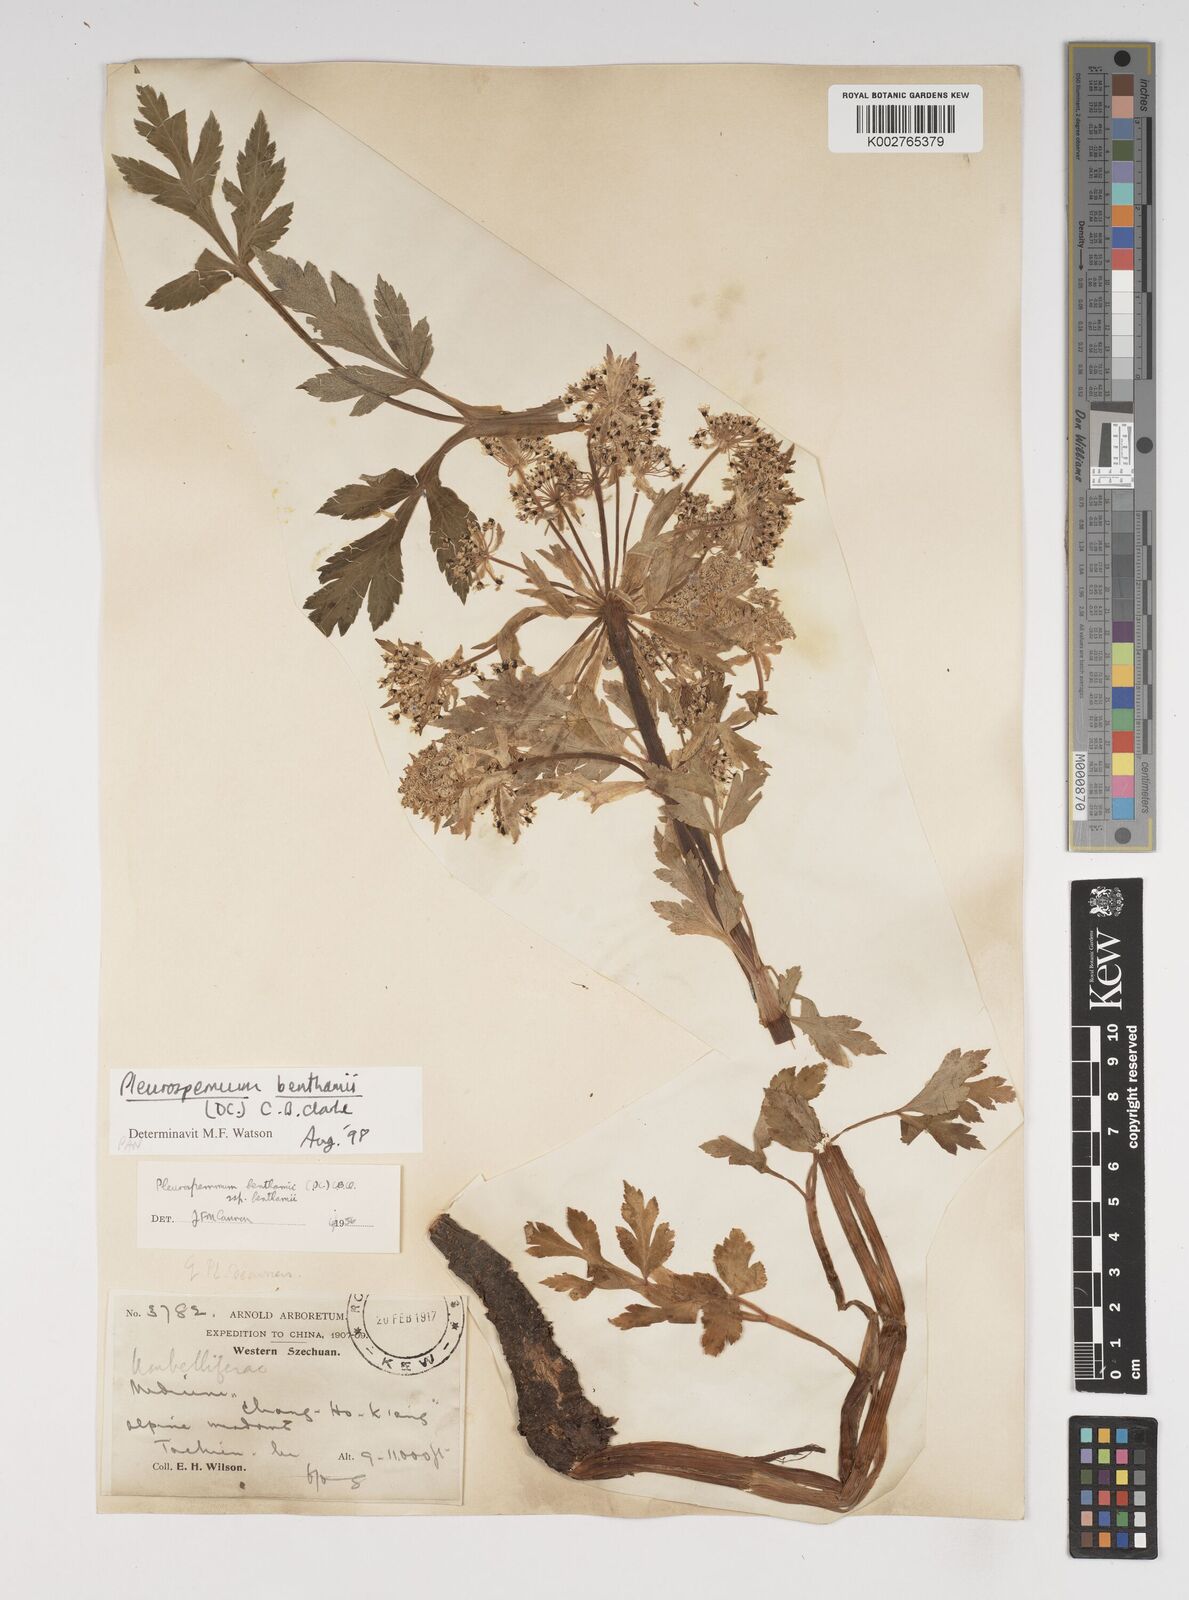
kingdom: Plantae
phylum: Tracheophyta
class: Magnoliopsida
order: Apiales
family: Apiaceae
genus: Hymenidium
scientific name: Hymenidium benthamii
